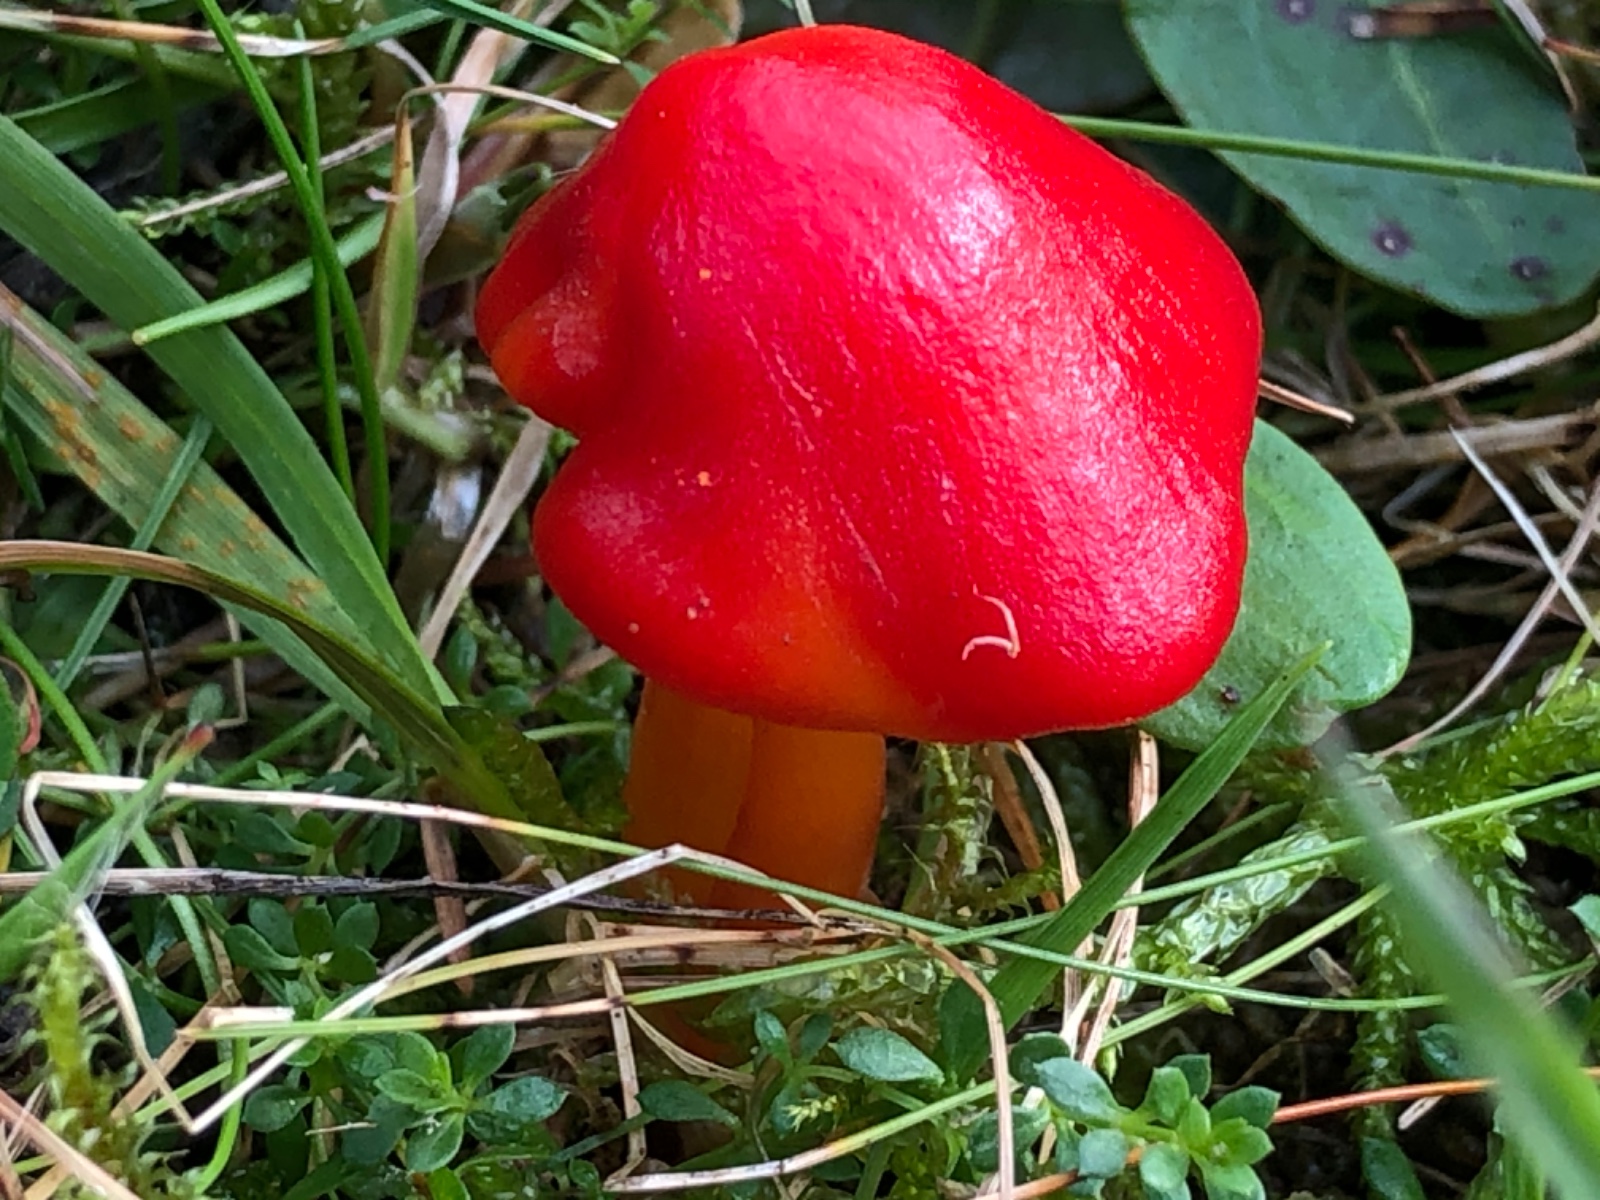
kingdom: Fungi
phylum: Basidiomycota
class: Agaricomycetes
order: Agaricales
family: Hygrophoraceae
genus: Hygrocybe
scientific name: Hygrocybe coccinea
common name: cinnober-vokshat
